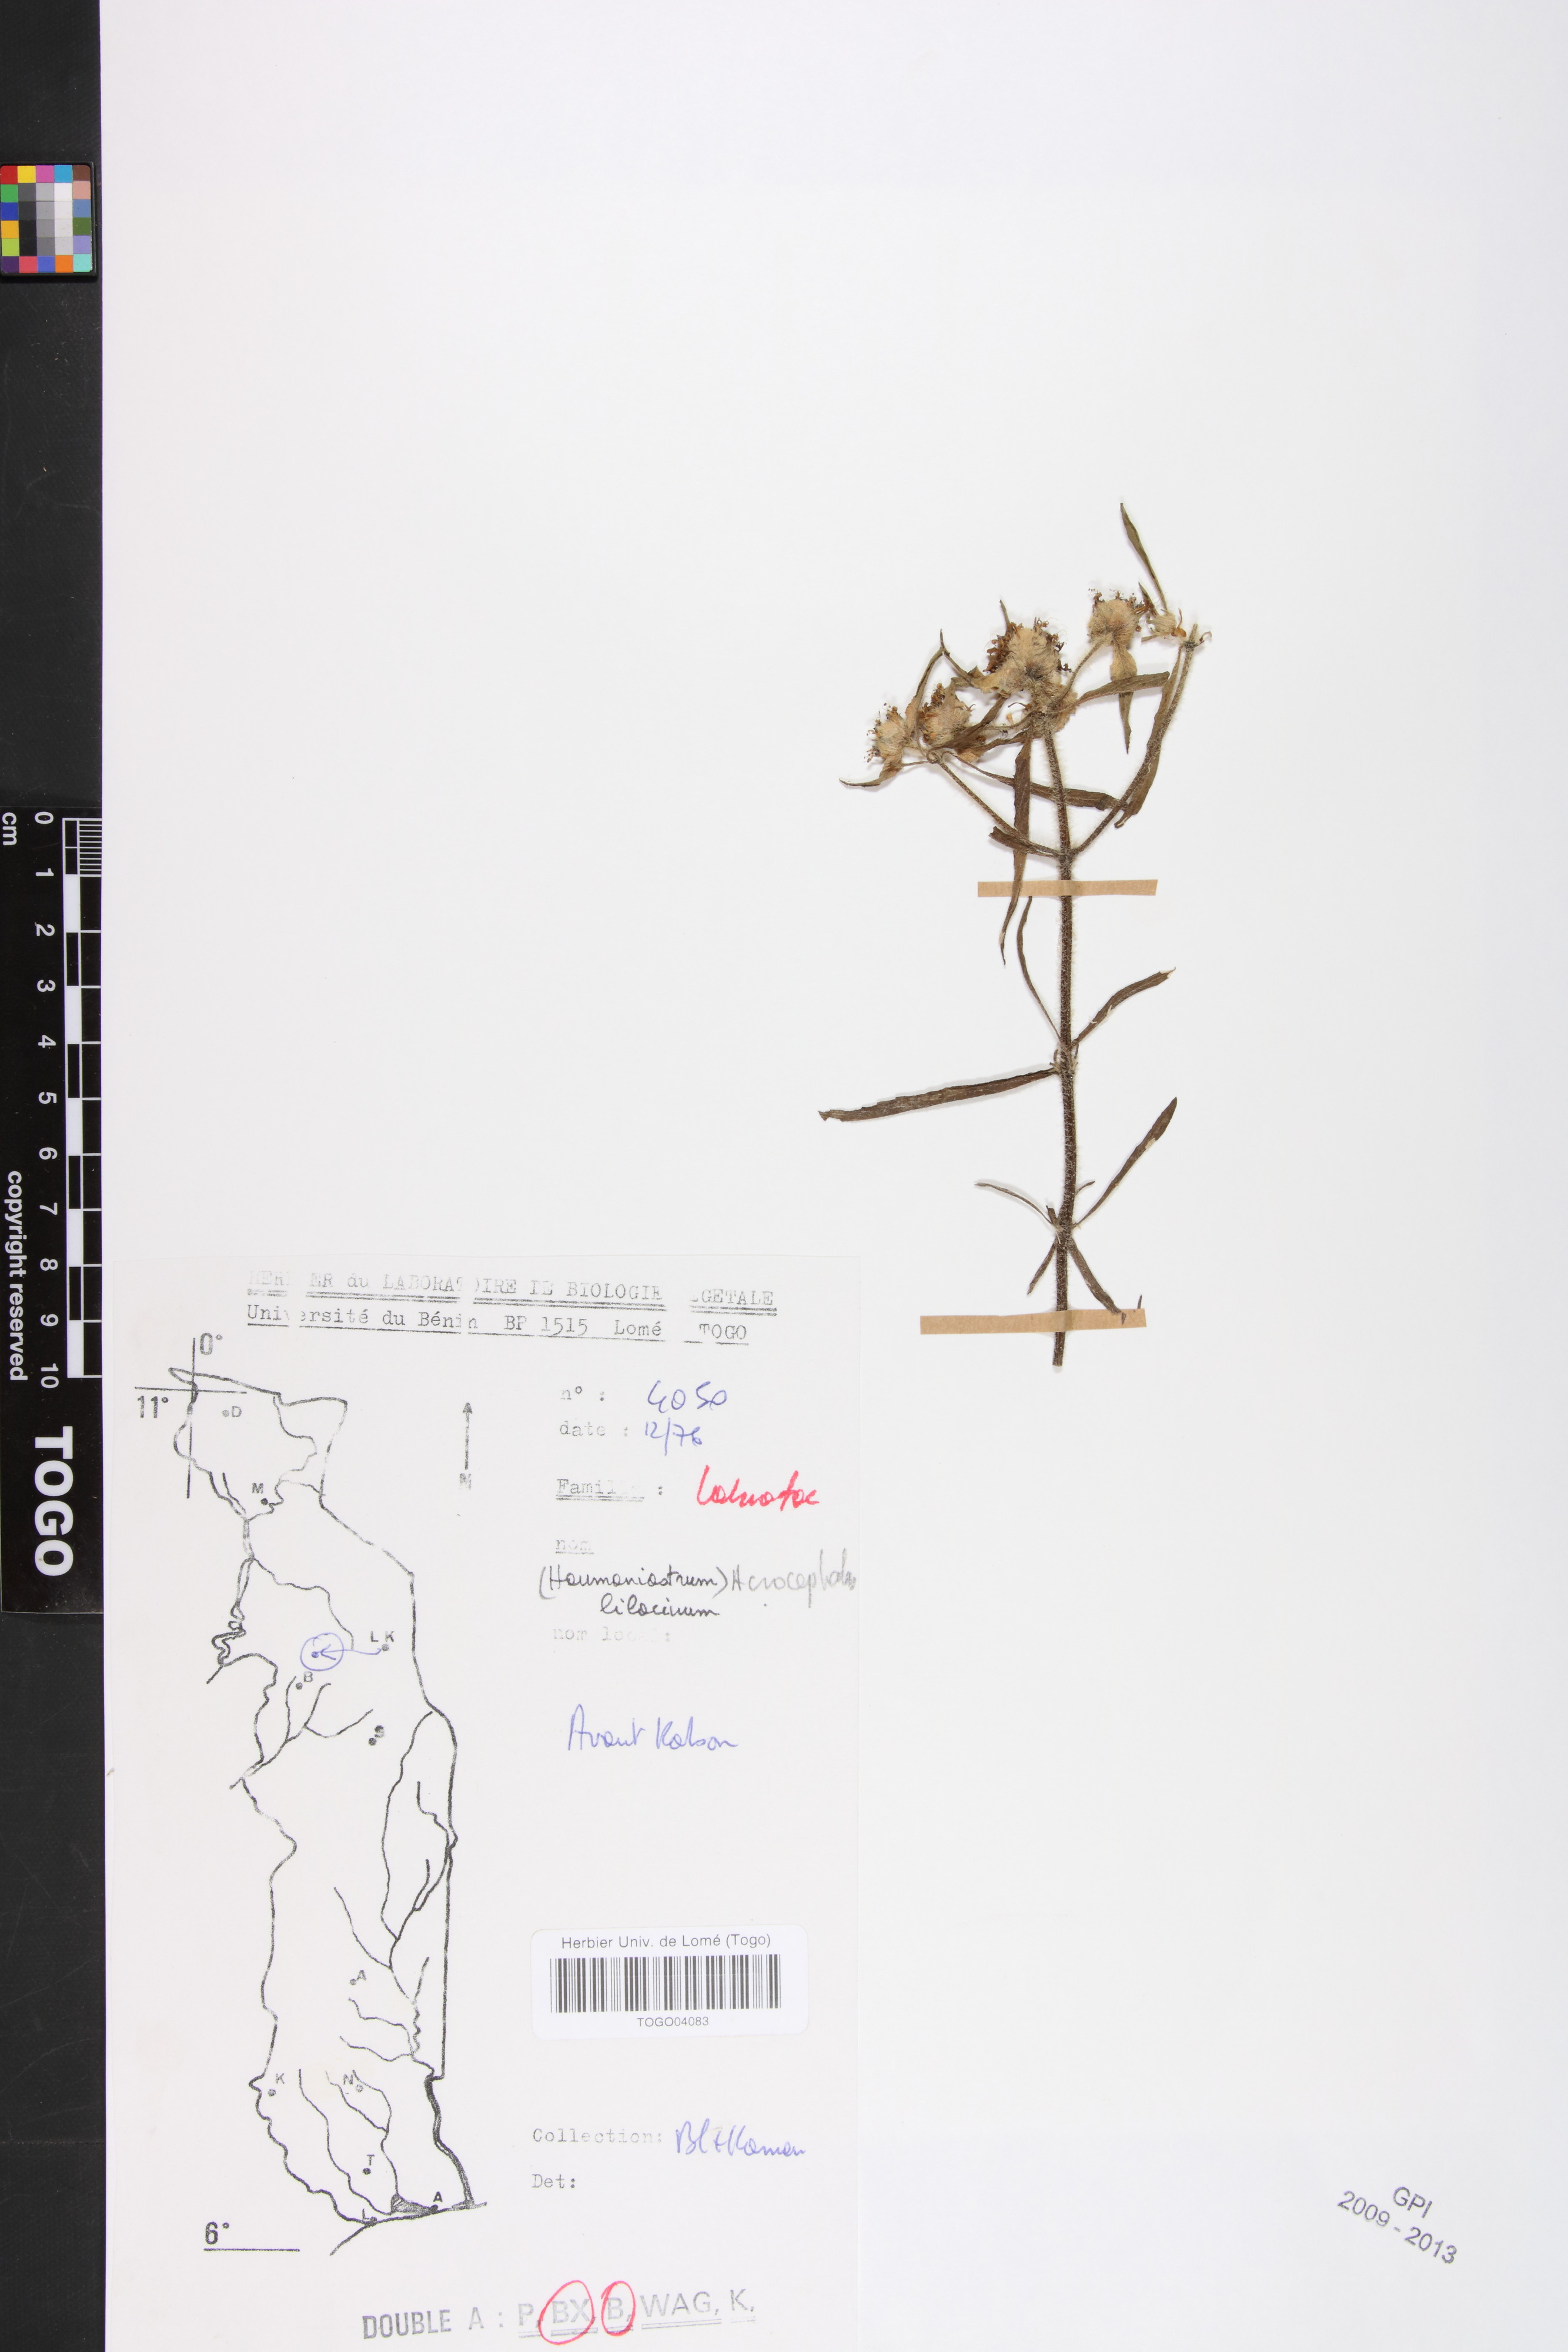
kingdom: Plantae
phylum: Tracheophyta
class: Magnoliopsida
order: Lamiales
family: Lamiaceae
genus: Haumaniastrum
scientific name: Haumaniastrum caeruleum
